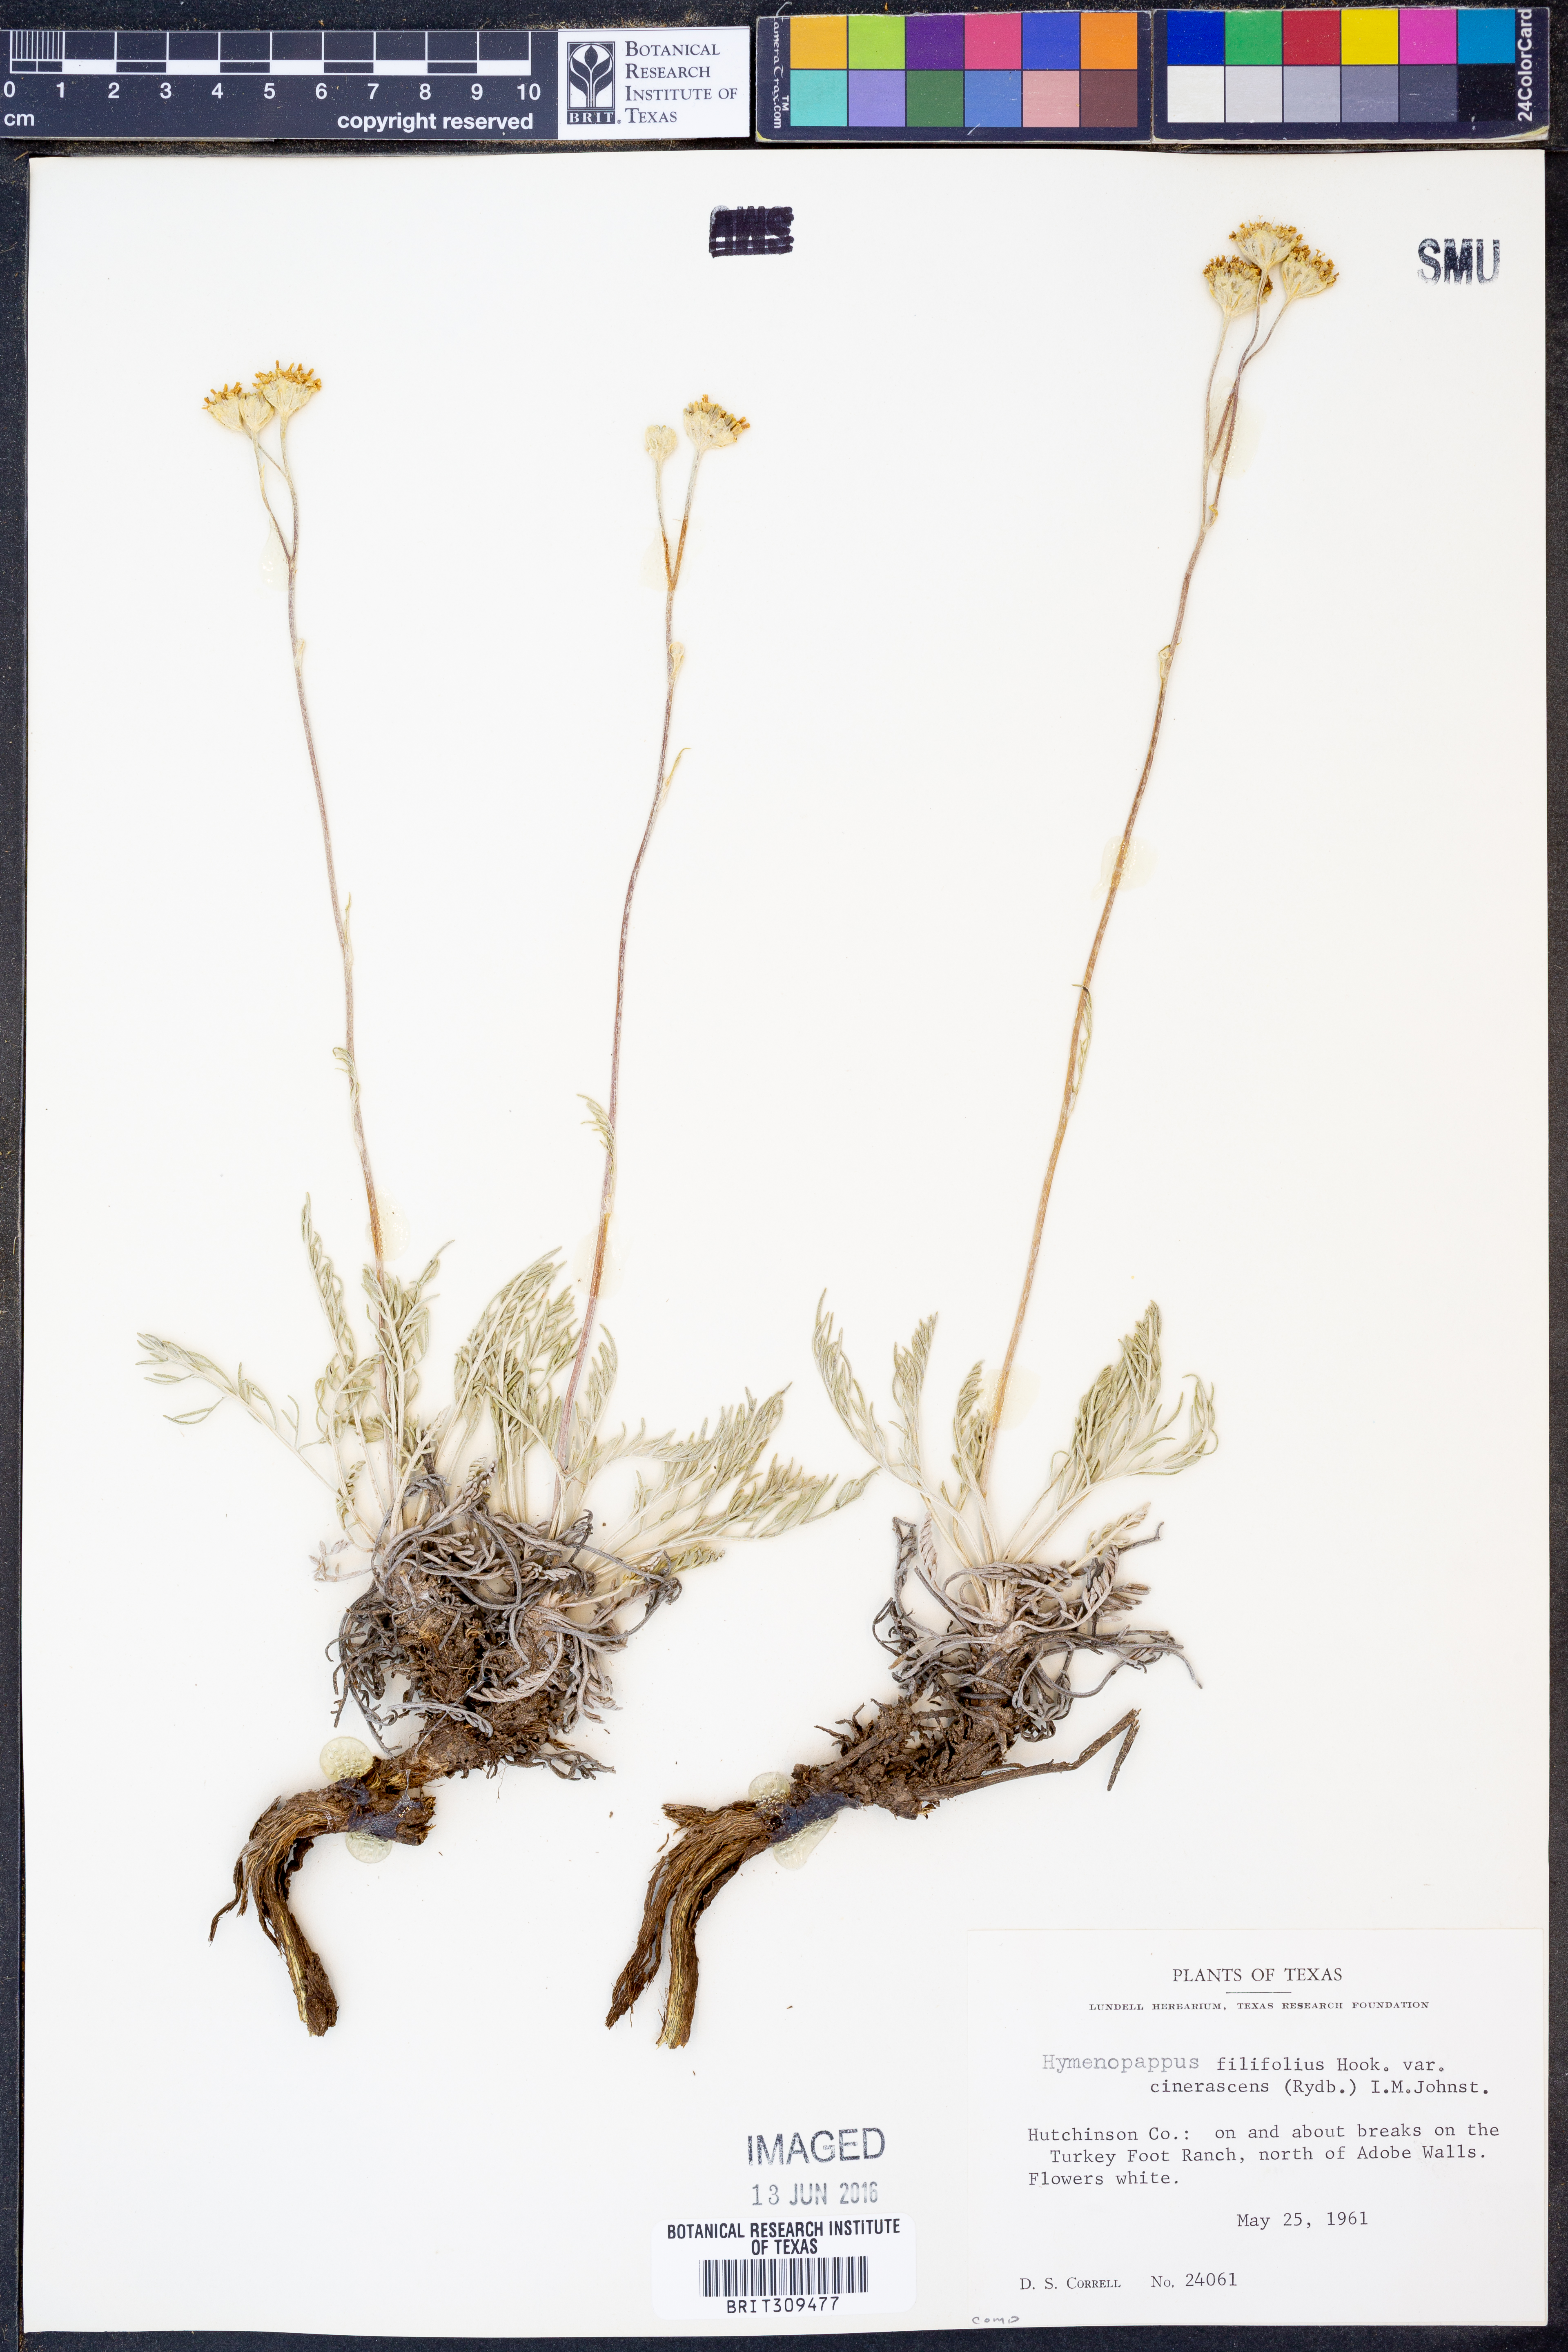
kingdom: Plantae
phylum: Tracheophyta
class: Magnoliopsida
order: Asterales
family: Asteraceae
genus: Hymenopappus
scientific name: Hymenopappus filifolius
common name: Columbia cutleaf
